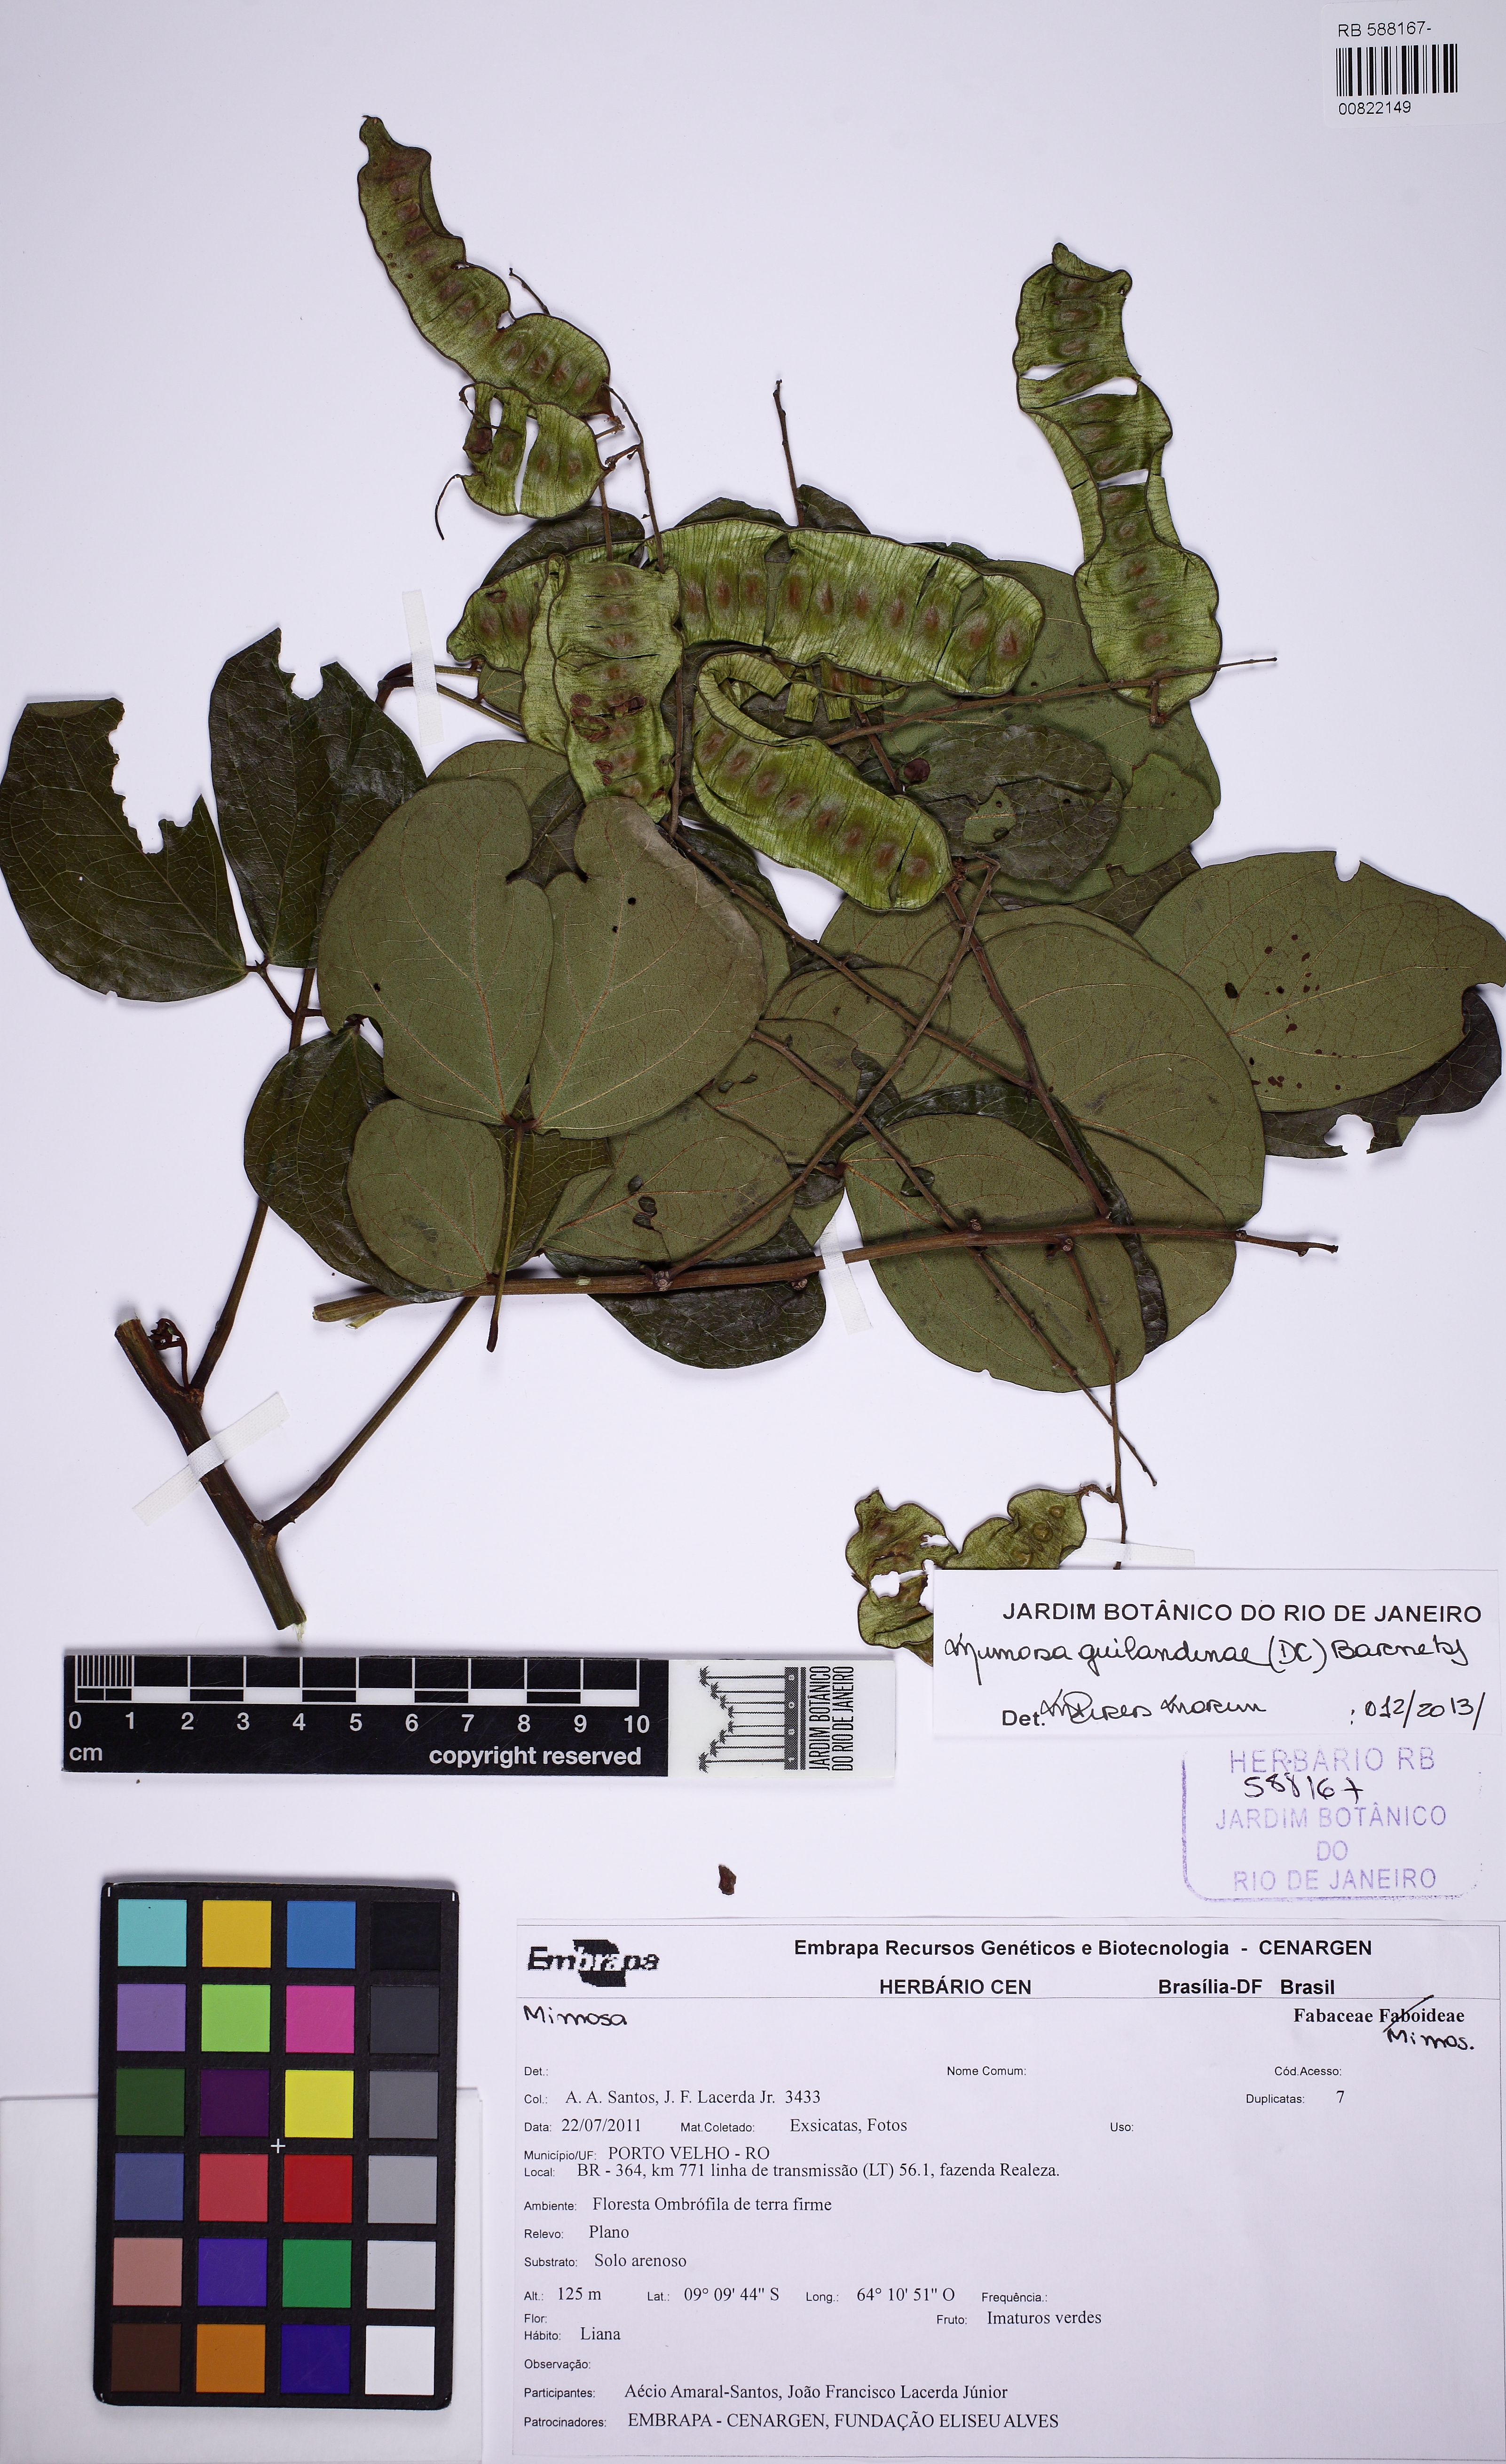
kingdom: Plantae
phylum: Tracheophyta
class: Magnoliopsida
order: Fabales
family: Fabaceae
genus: Mimosa
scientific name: Mimosa guilandinae
